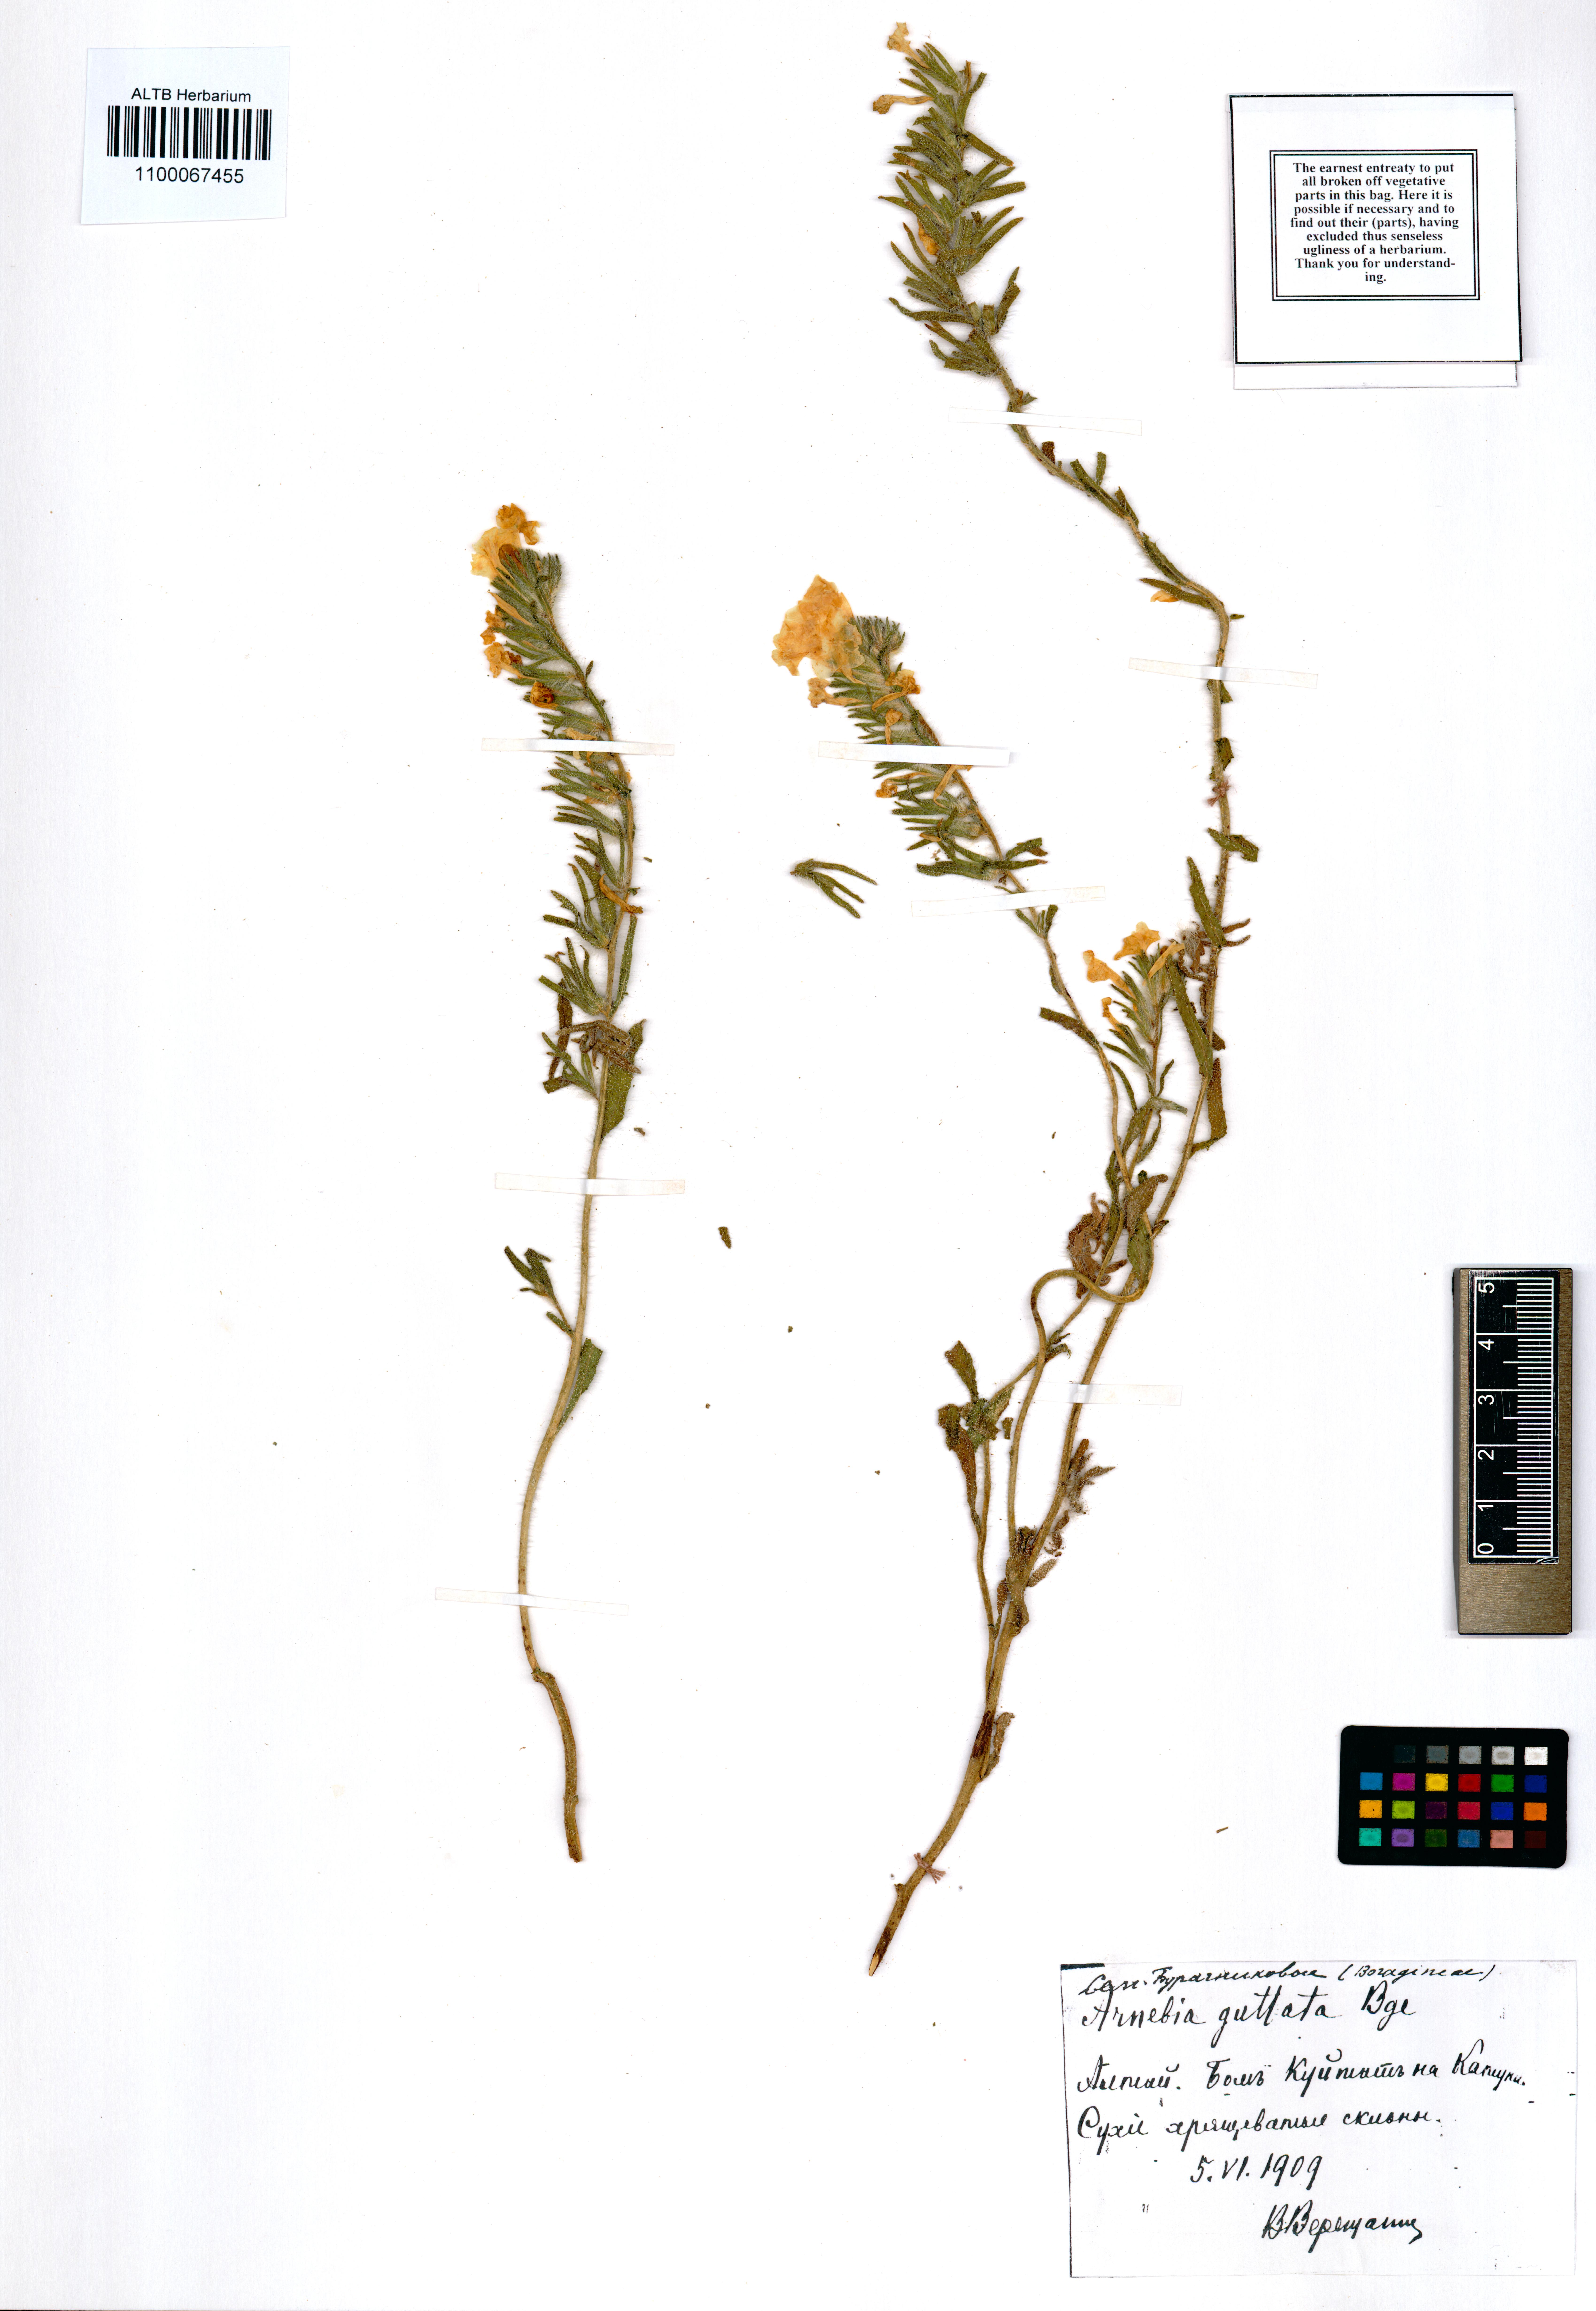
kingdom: Plantae
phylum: Tracheophyta
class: Magnoliopsida
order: Boraginales
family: Boraginaceae
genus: Arnebia
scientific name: Arnebia guttata
